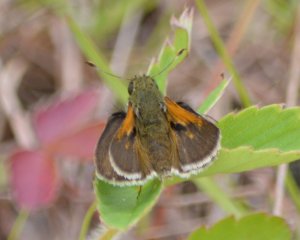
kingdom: Animalia
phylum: Arthropoda
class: Insecta
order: Lepidoptera
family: Hesperiidae
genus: Polites
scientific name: Polites themistocles
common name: Tawny-edged Skipper
